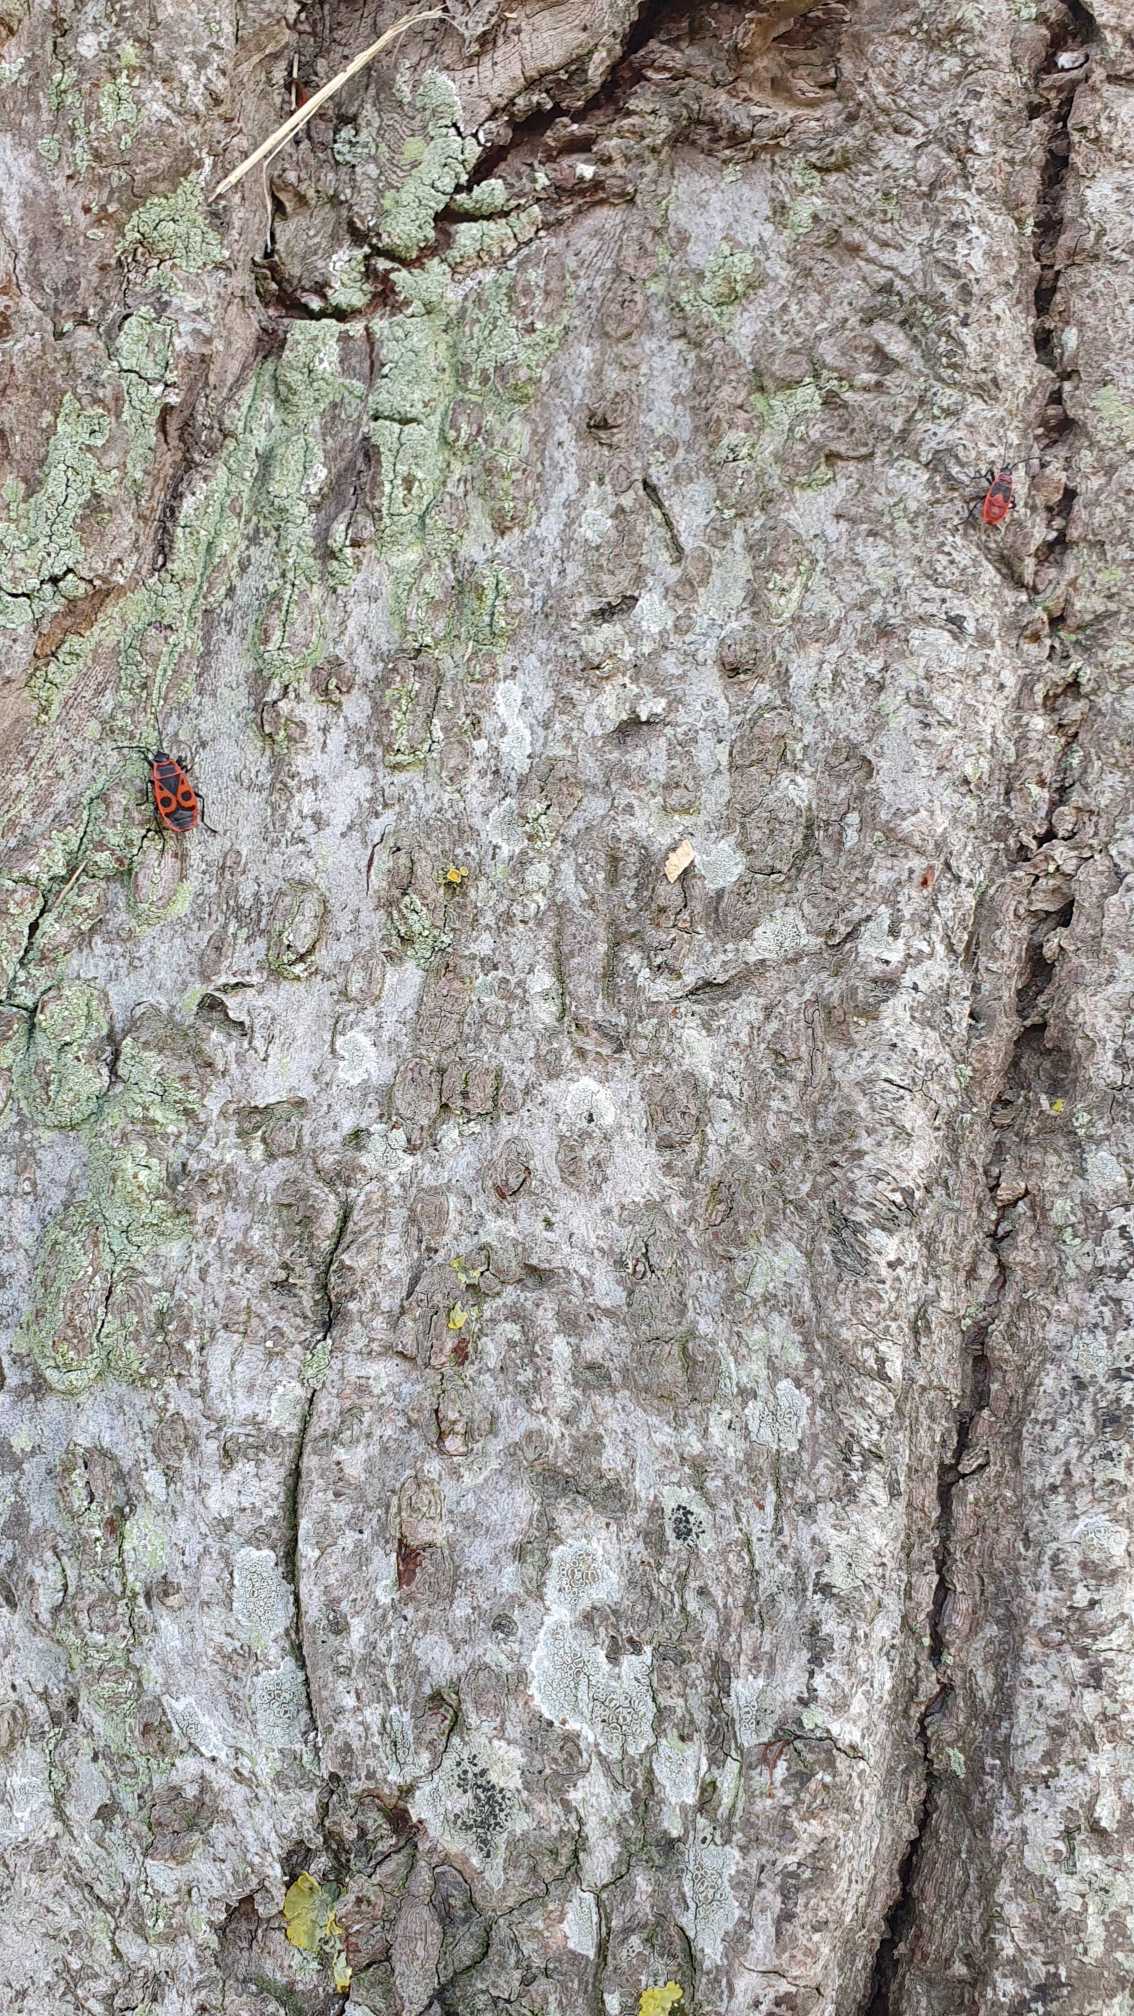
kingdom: Animalia
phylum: Arthropoda
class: Insecta
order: Hemiptera
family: Pyrrhocoridae
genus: Pyrrhocoris
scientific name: Pyrrhocoris apterus
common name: Ildtæge
